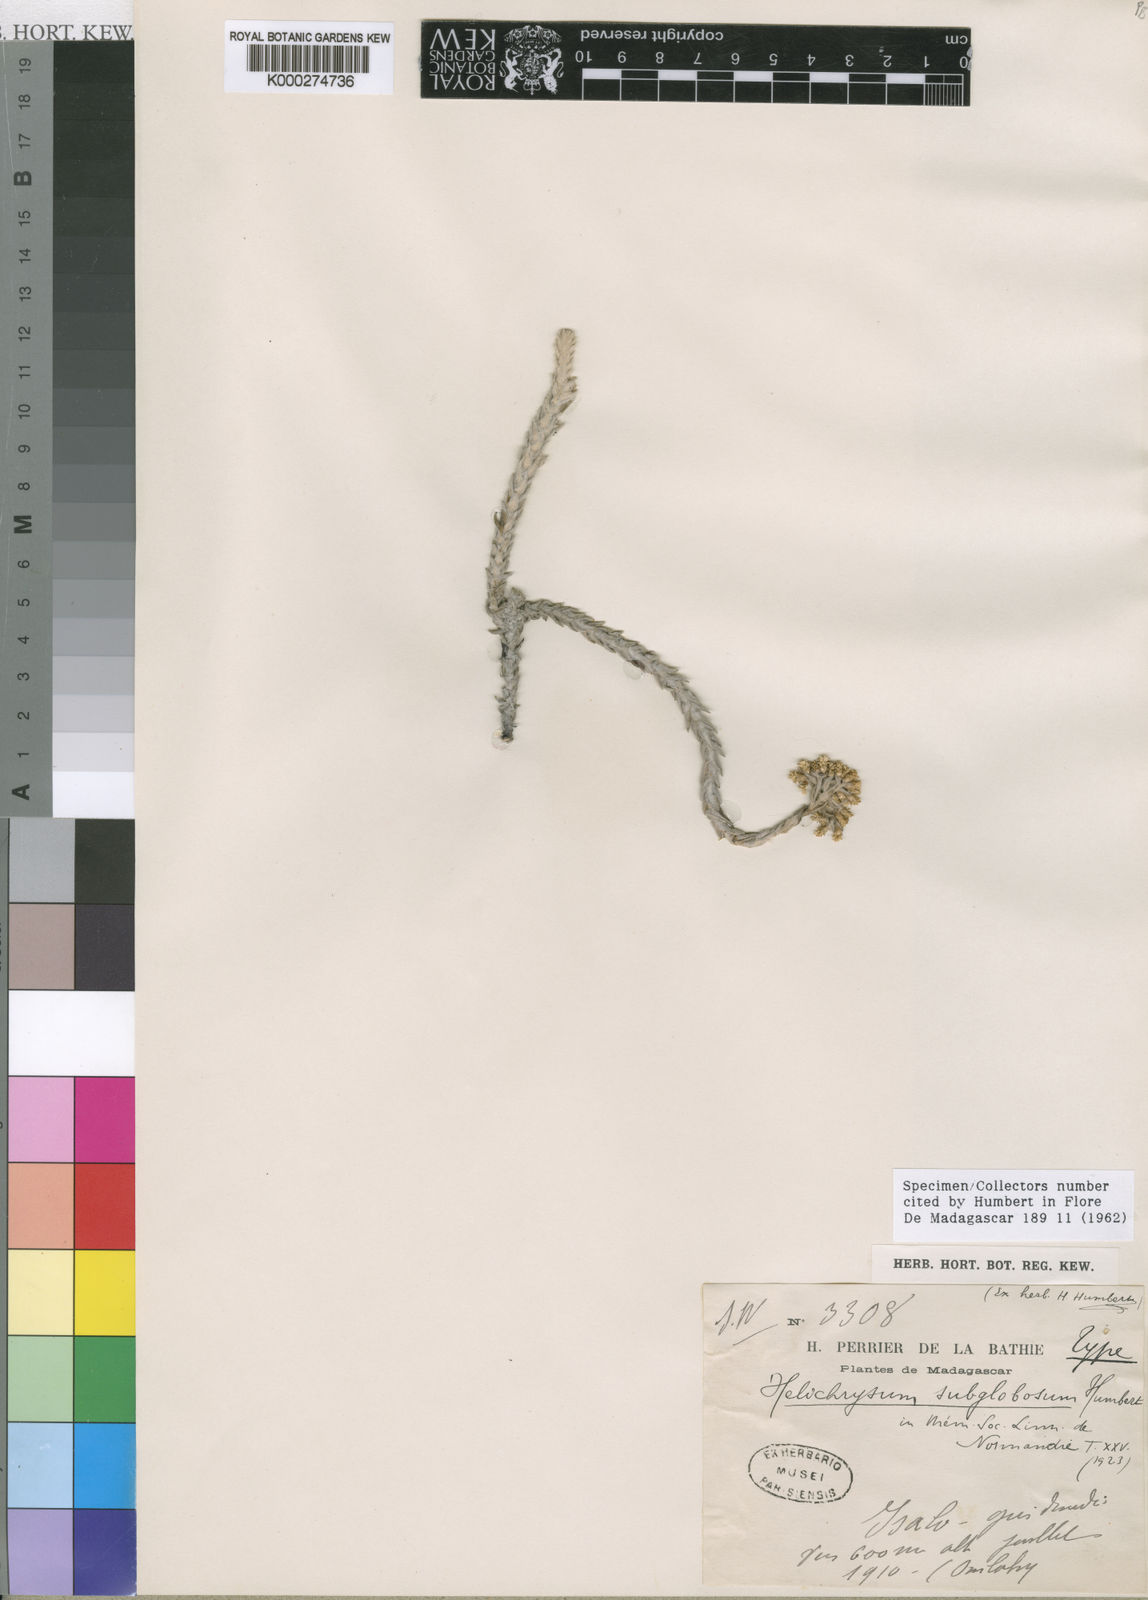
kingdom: Plantae
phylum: Tracheophyta
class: Magnoliopsida
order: Asterales
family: Asteraceae
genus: Helichrysum
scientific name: Helichrysum subglobosum
